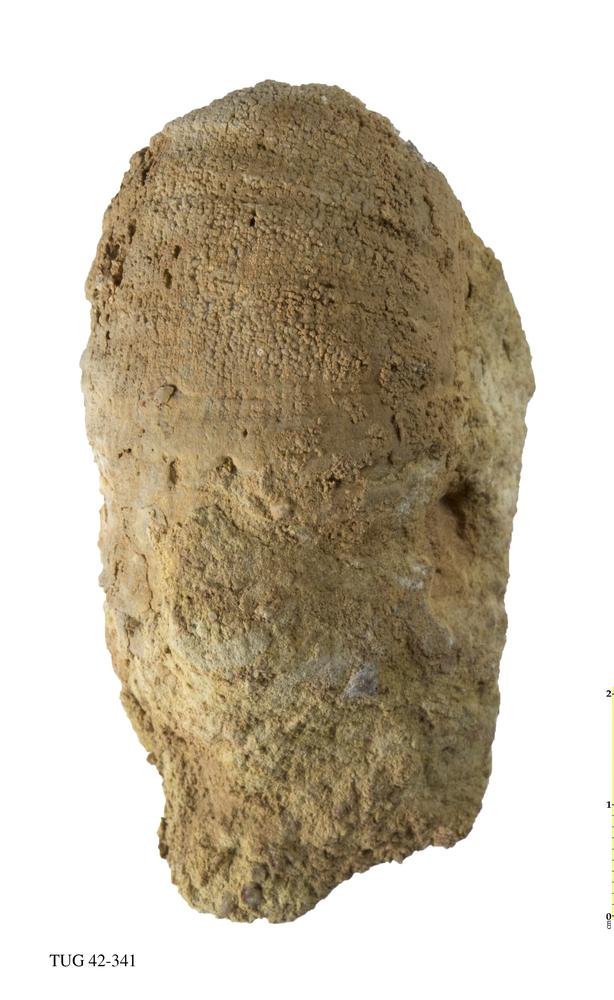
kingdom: Animalia
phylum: Cnidaria
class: Anthozoa
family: Streptelasmatidae
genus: Streptelasma
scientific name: Streptelasma corniculum
